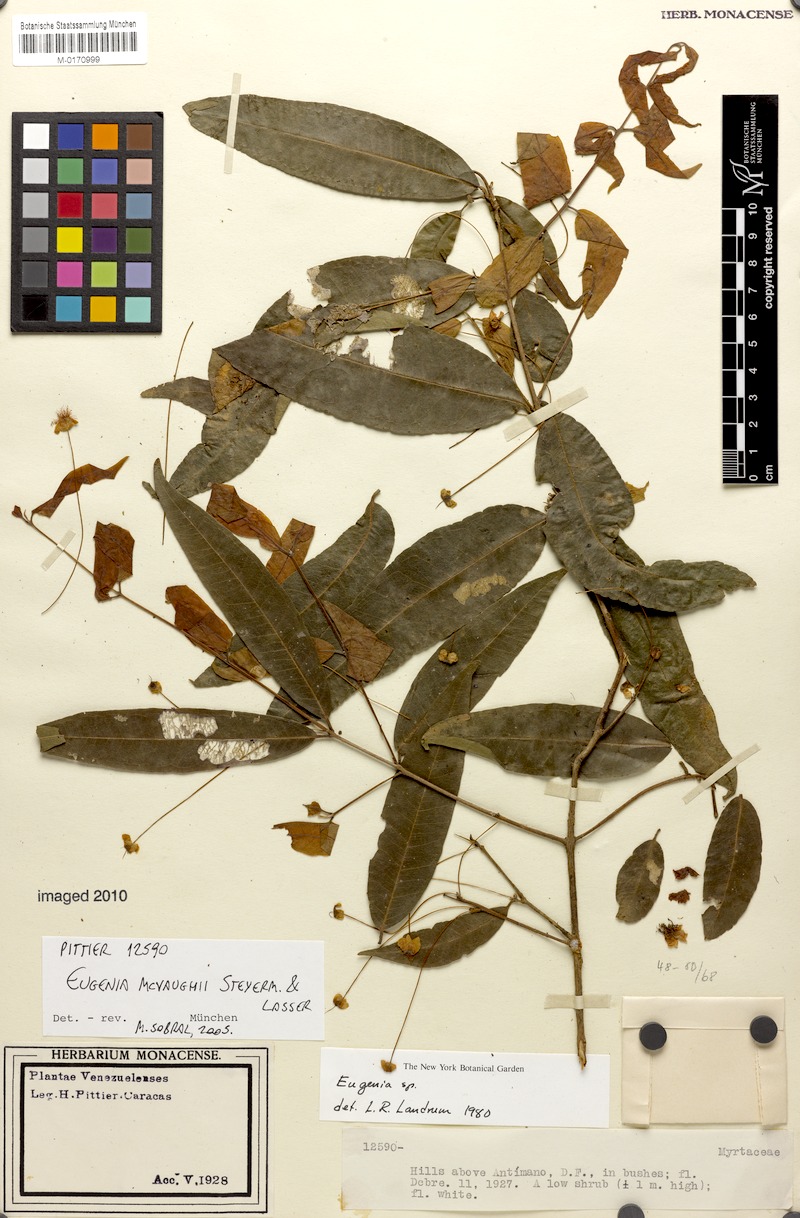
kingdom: Plantae
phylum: Tracheophyta
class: Magnoliopsida
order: Myrtales
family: Myrtaceae
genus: Eugenia
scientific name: Eugenia mcvaughii
